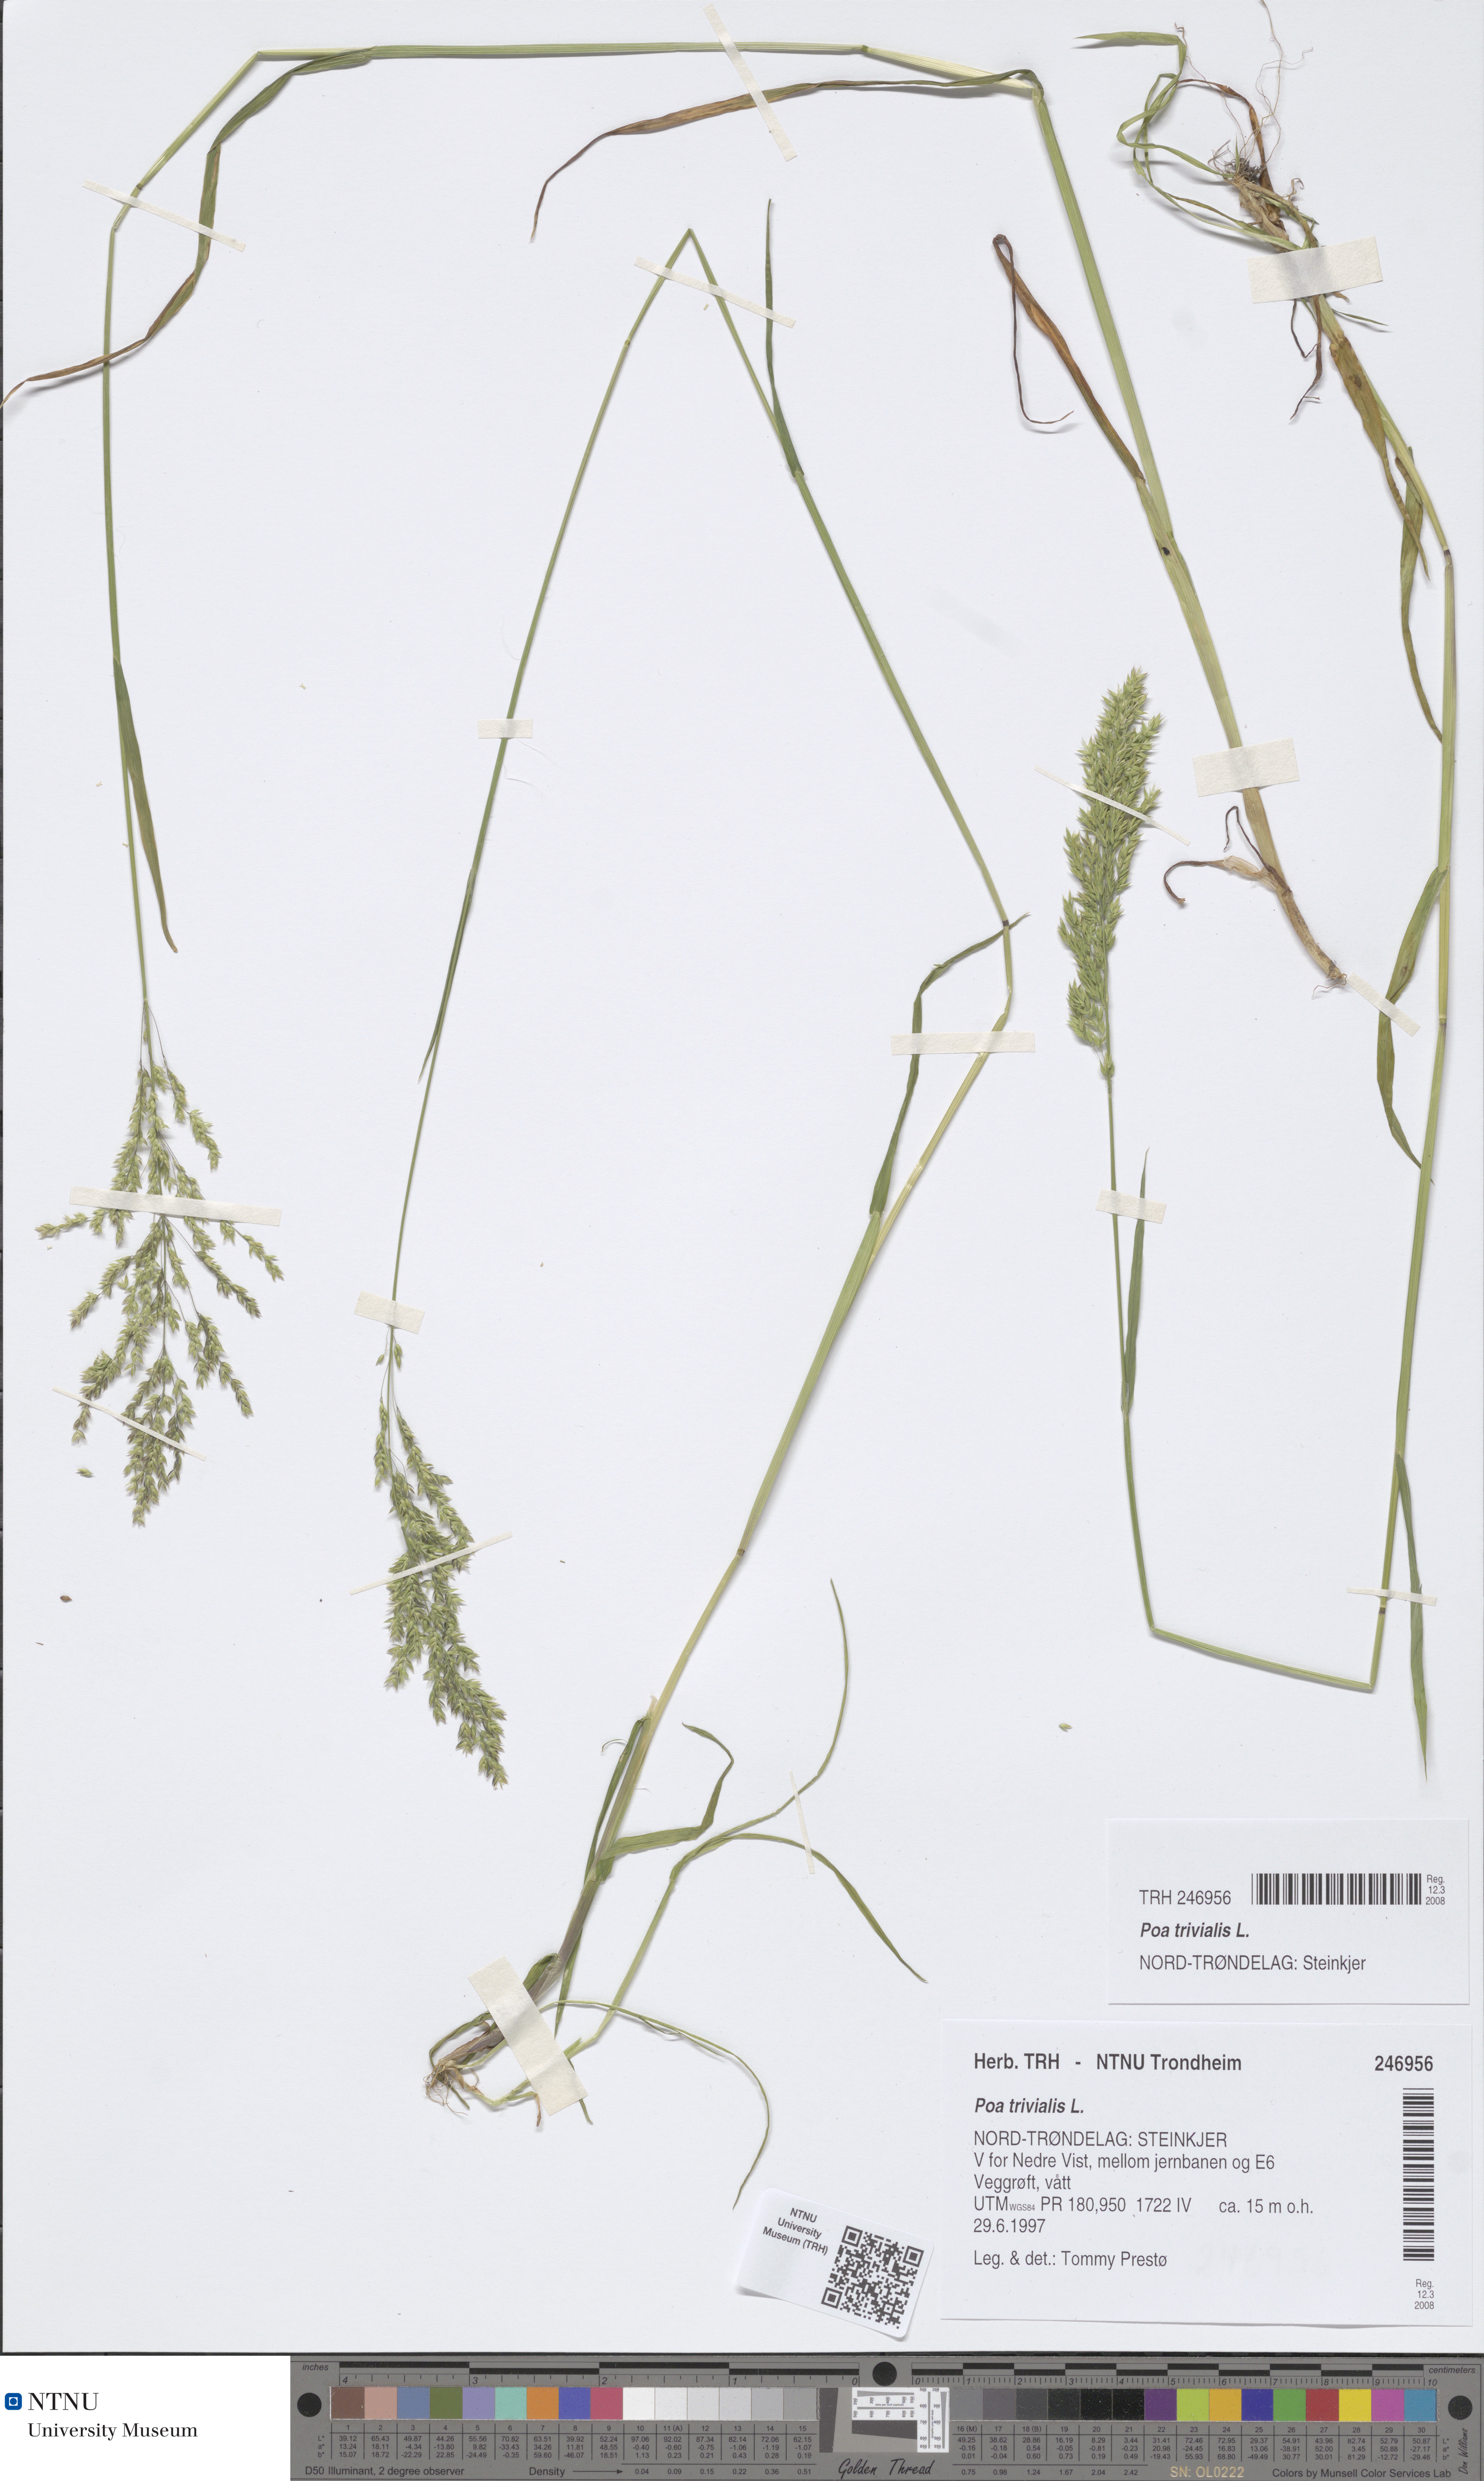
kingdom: Plantae
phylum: Tracheophyta
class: Liliopsida
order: Poales
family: Poaceae
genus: Poa
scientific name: Poa trivialis
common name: Rough bluegrass
